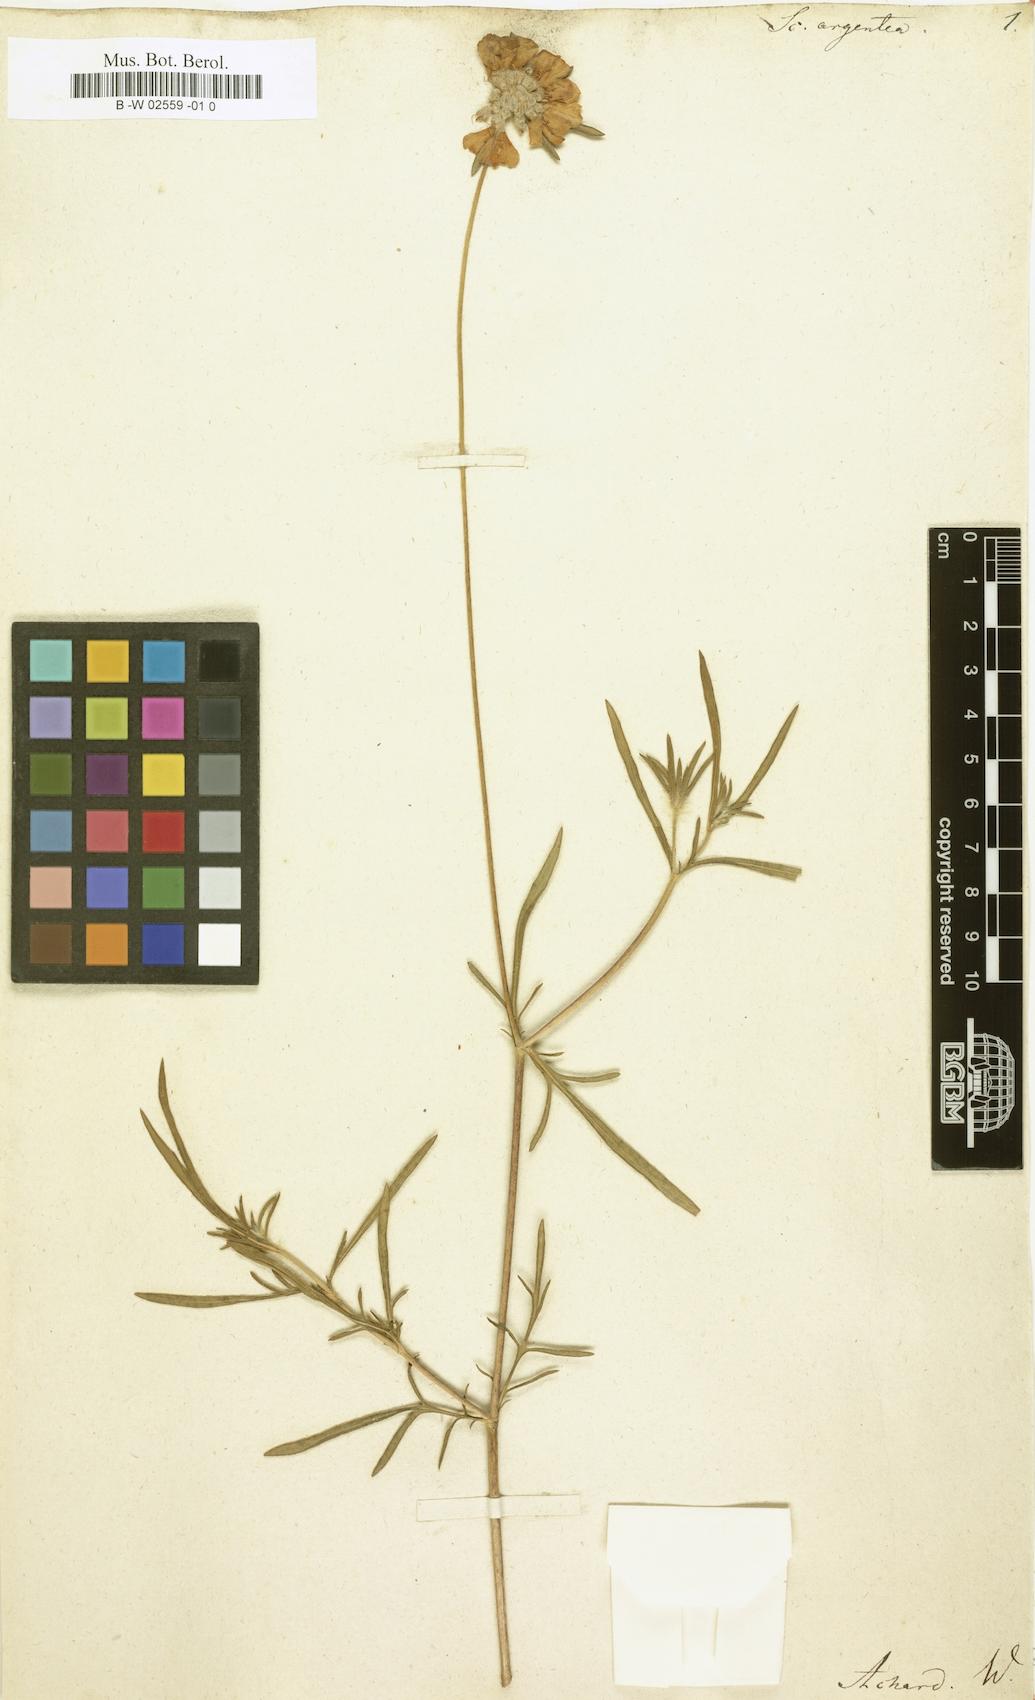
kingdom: Plantae
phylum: Tracheophyta
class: Magnoliopsida
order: Dipsacales
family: Caprifoliaceae
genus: Lomelosia
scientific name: Lomelosia
